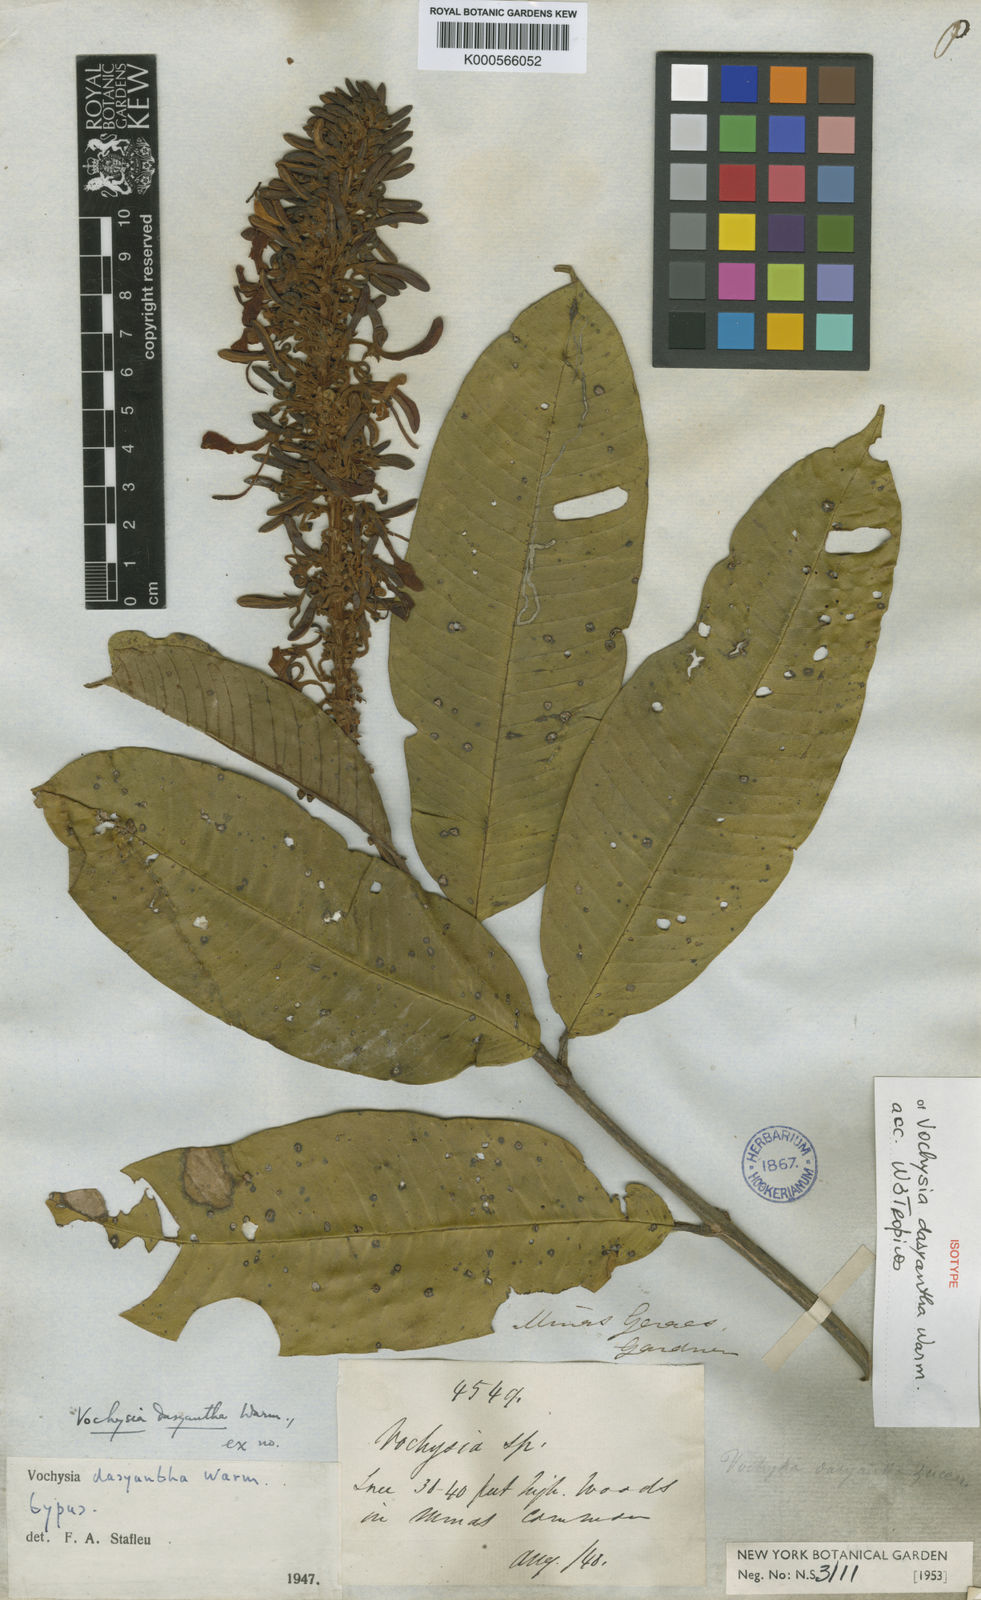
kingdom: Plantae
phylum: Tracheophyta
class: Magnoliopsida
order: Myrtales
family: Vochysiaceae
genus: Vochysia
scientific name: Vochysia dasyantha
